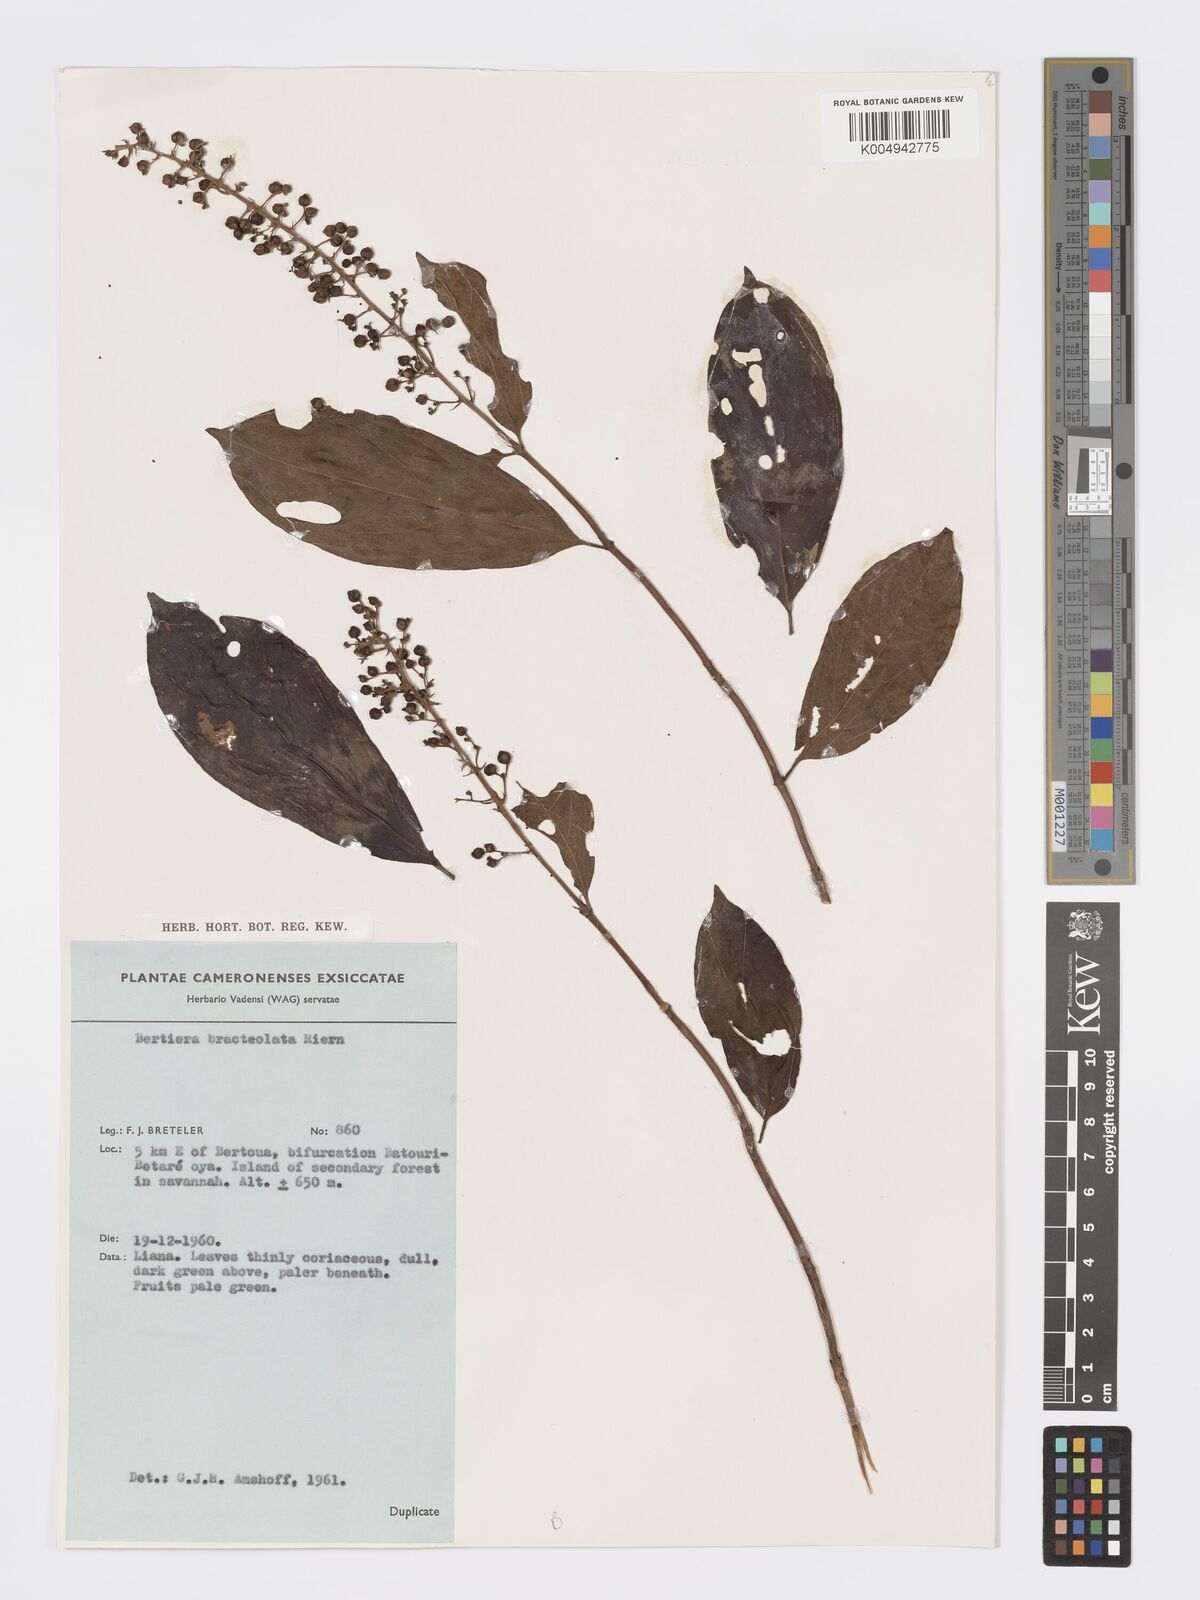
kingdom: Plantae
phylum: Tracheophyta
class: Magnoliopsida
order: Gentianales
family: Rubiaceae
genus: Bertiera
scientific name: Bertiera bracteolata
